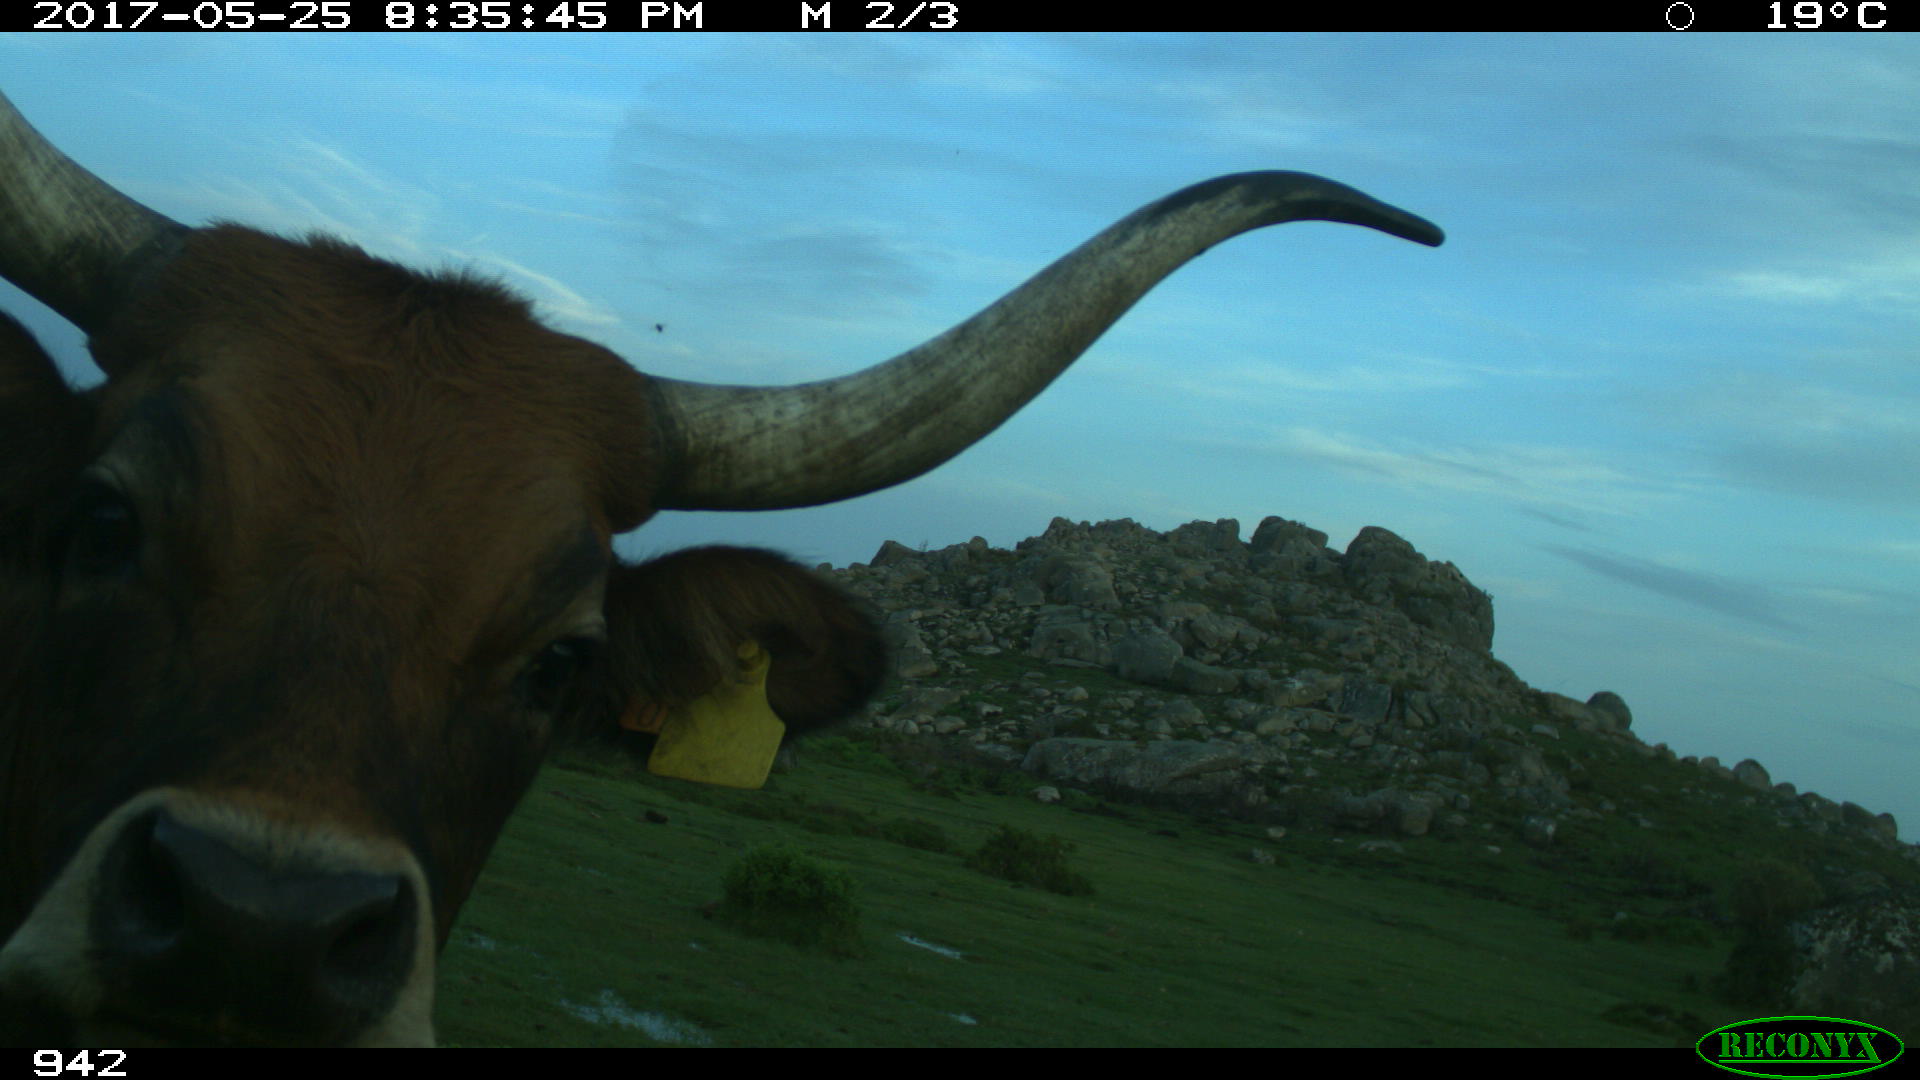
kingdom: Animalia
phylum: Chordata
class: Mammalia
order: Artiodactyla
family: Bovidae
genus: Bos
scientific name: Bos taurus
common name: Domesticated cattle
